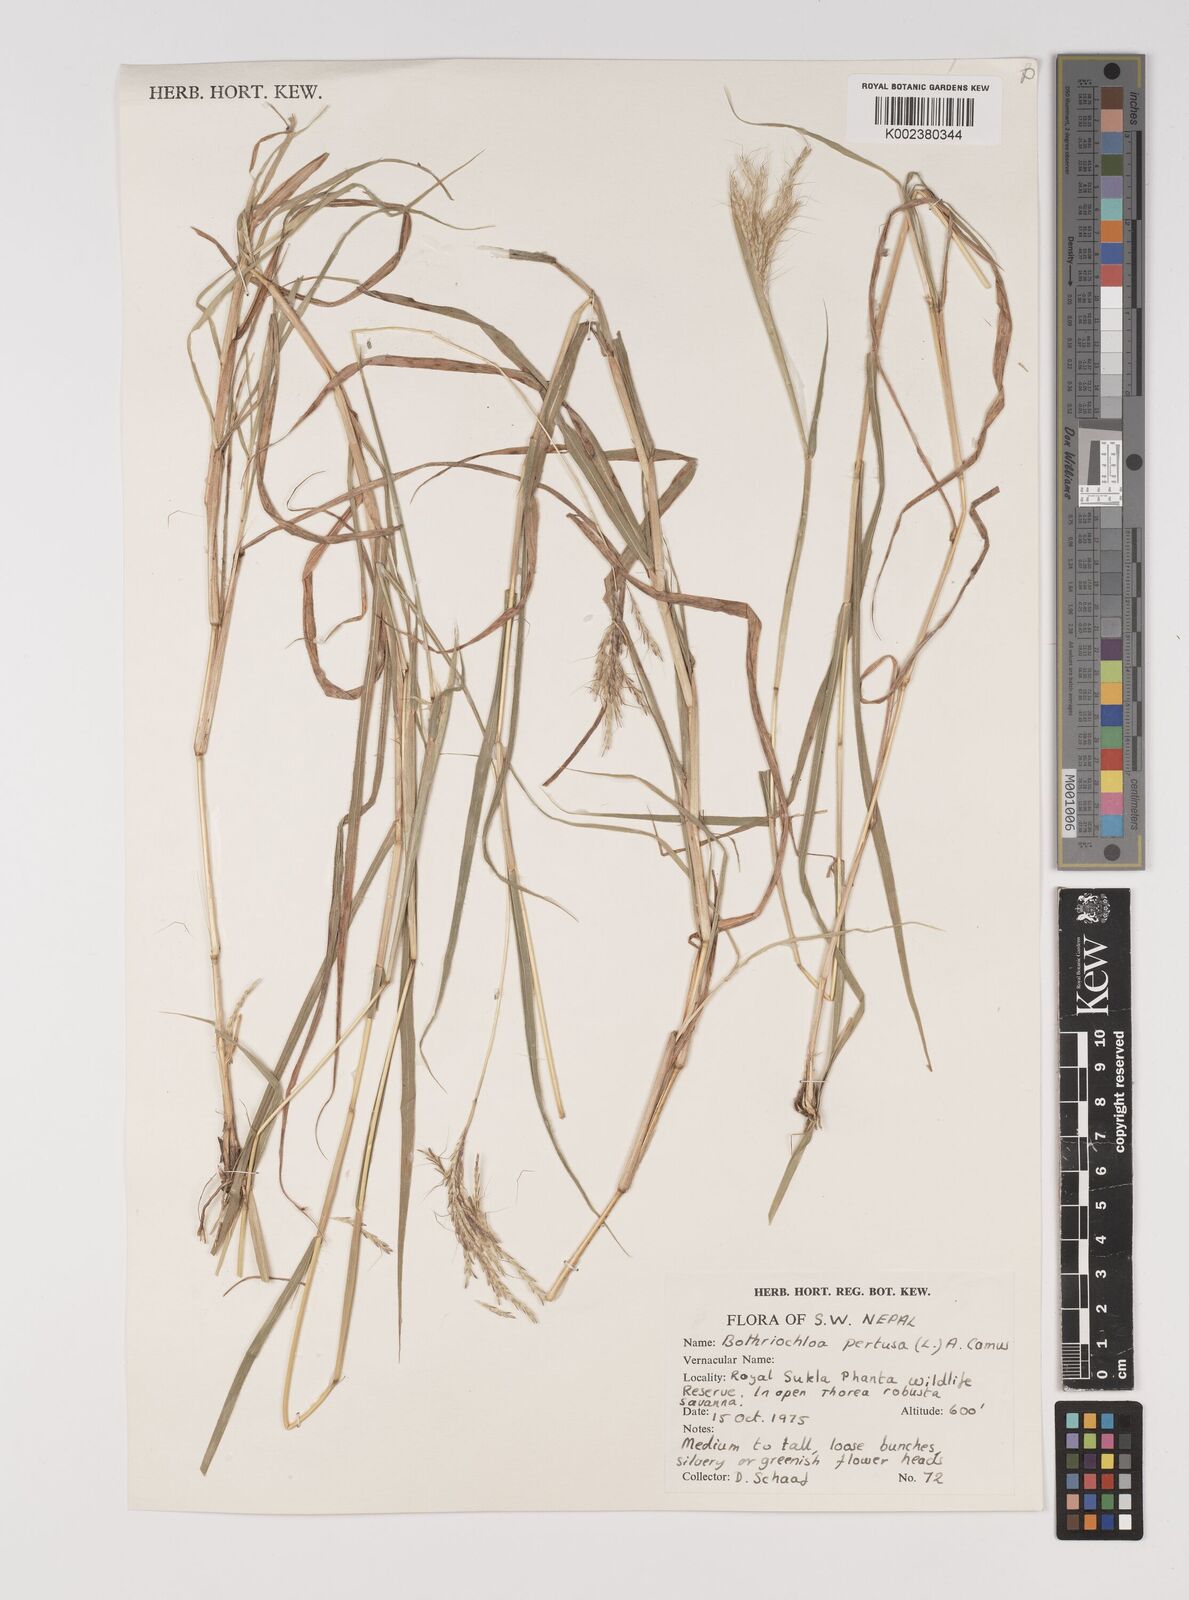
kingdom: Plantae
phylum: Tracheophyta
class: Liliopsida
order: Poales
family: Poaceae
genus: Bothriochloa
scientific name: Bothriochloa pertusa
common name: Pitted beardgrass
